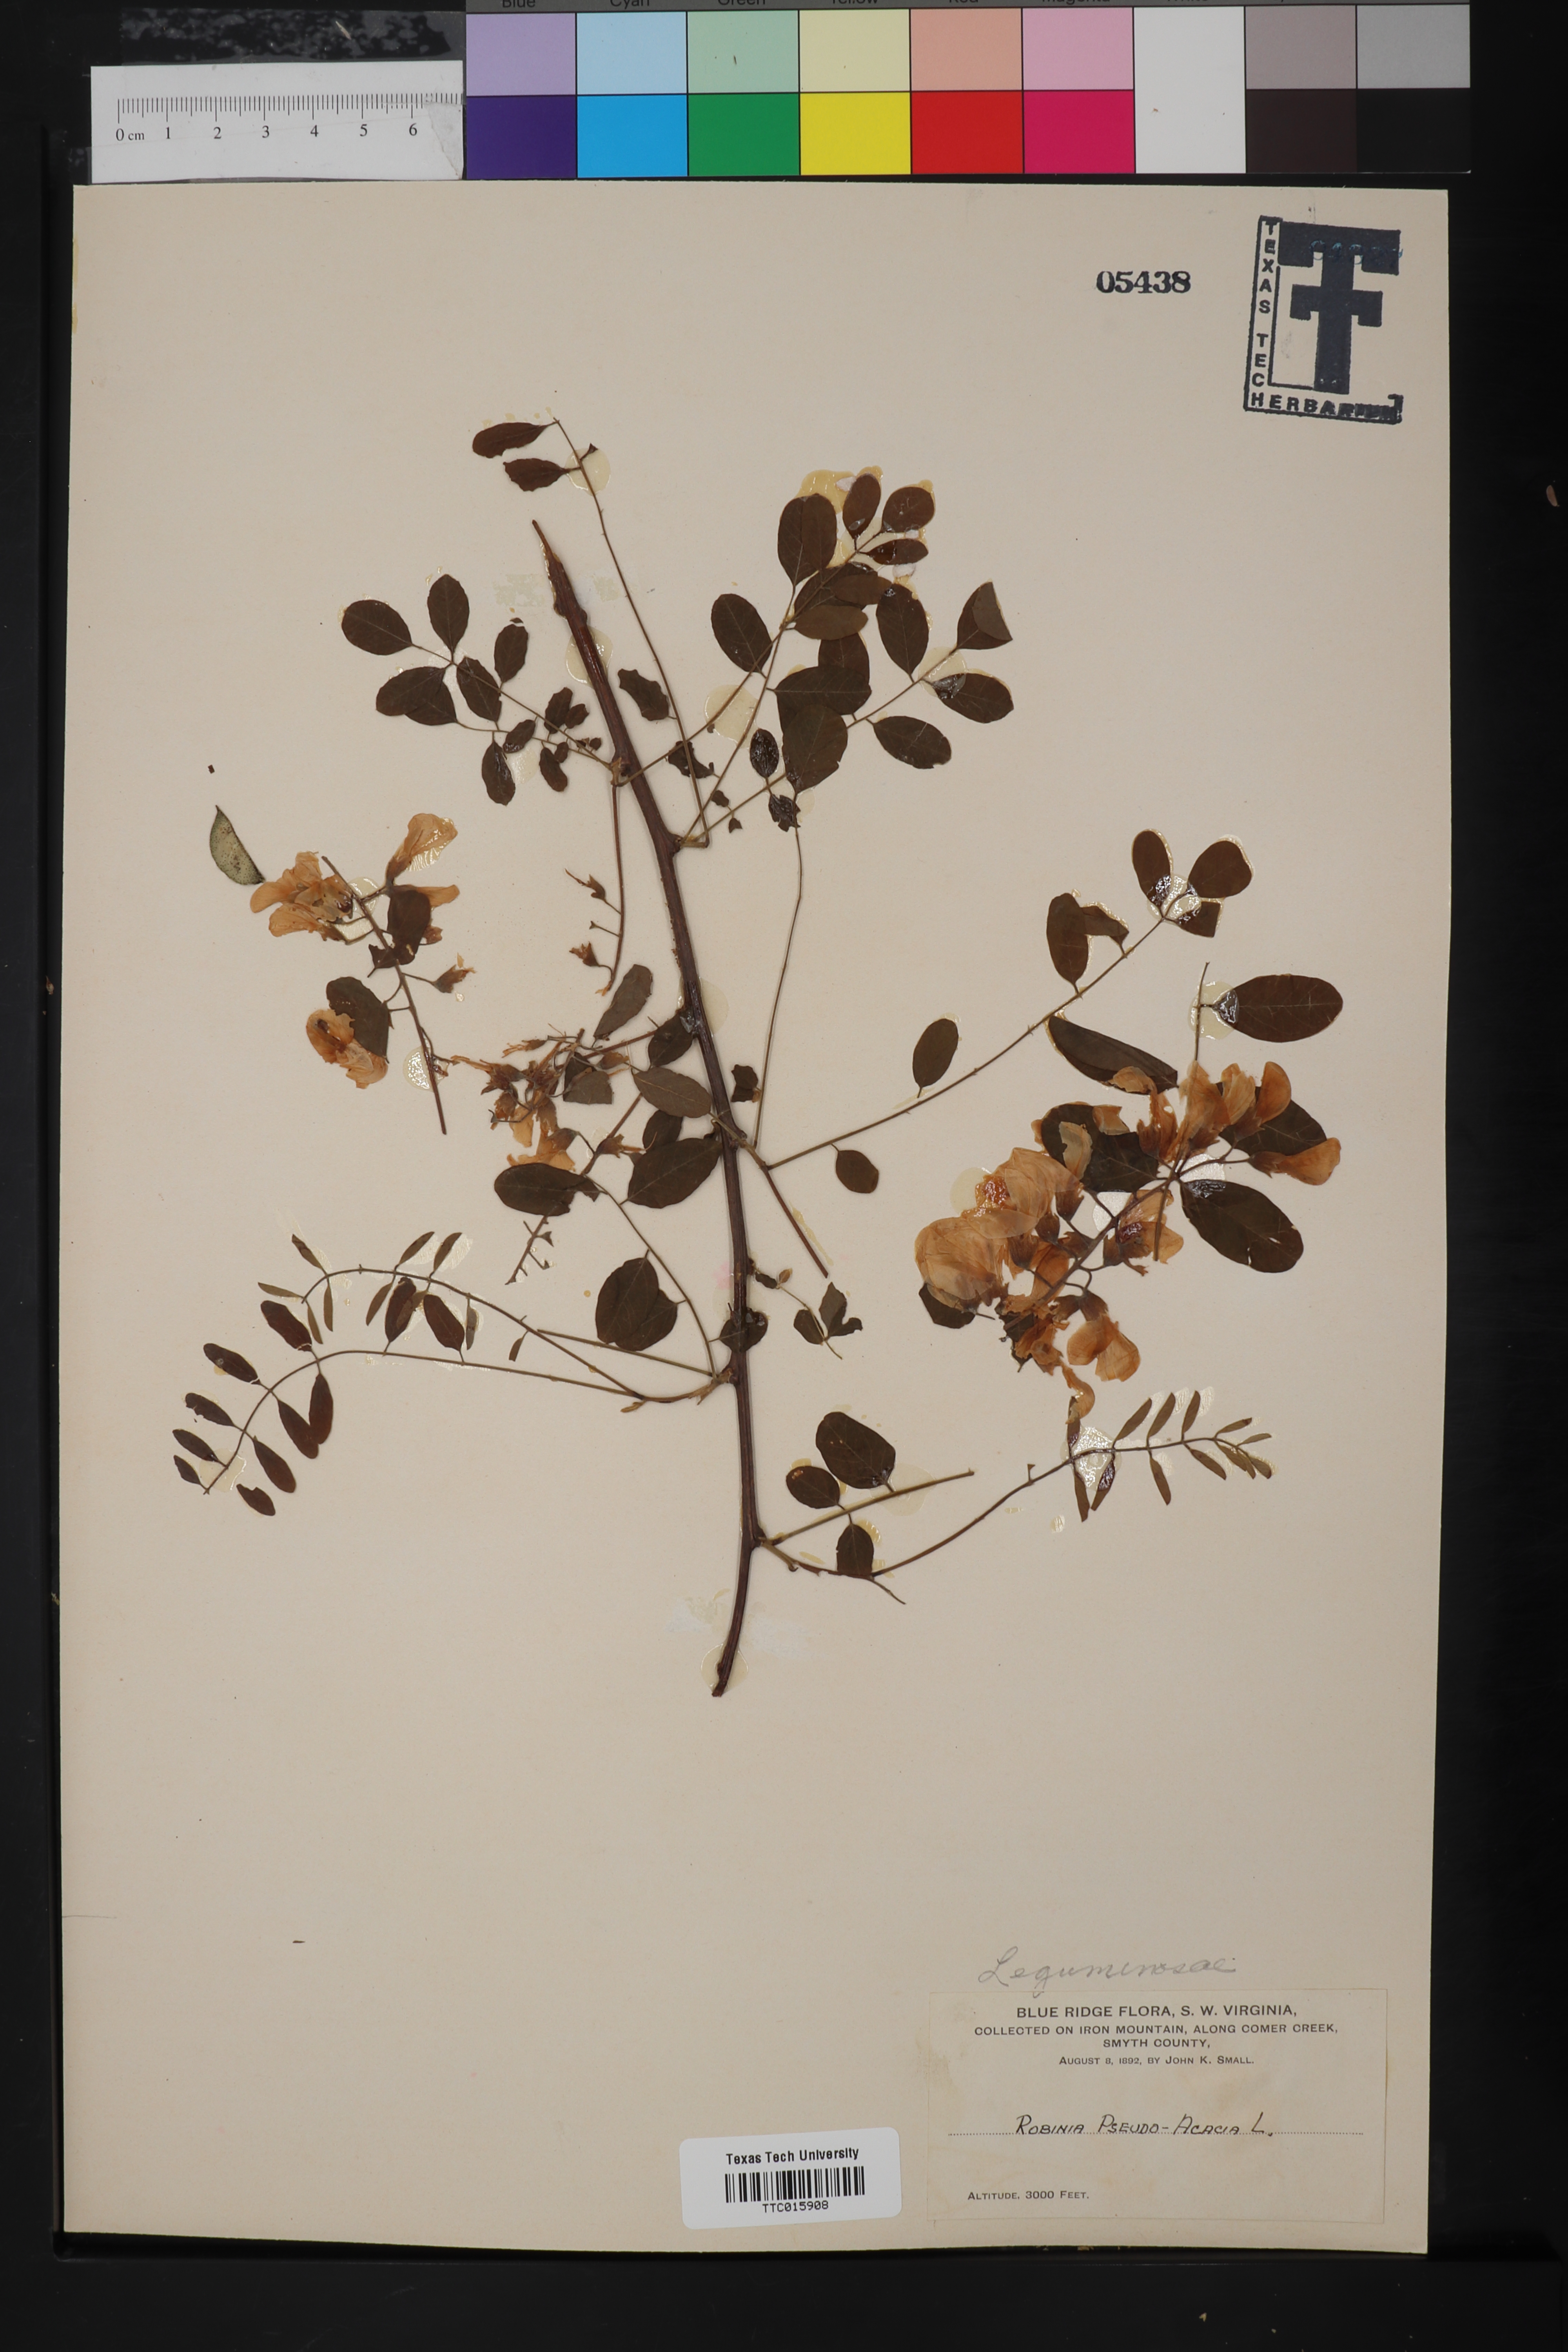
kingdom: Plantae
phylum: Tracheophyta
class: Magnoliopsida
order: Fabales
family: Fabaceae
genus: Robinia
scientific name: Robinia pseudoacacia
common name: Black locust
